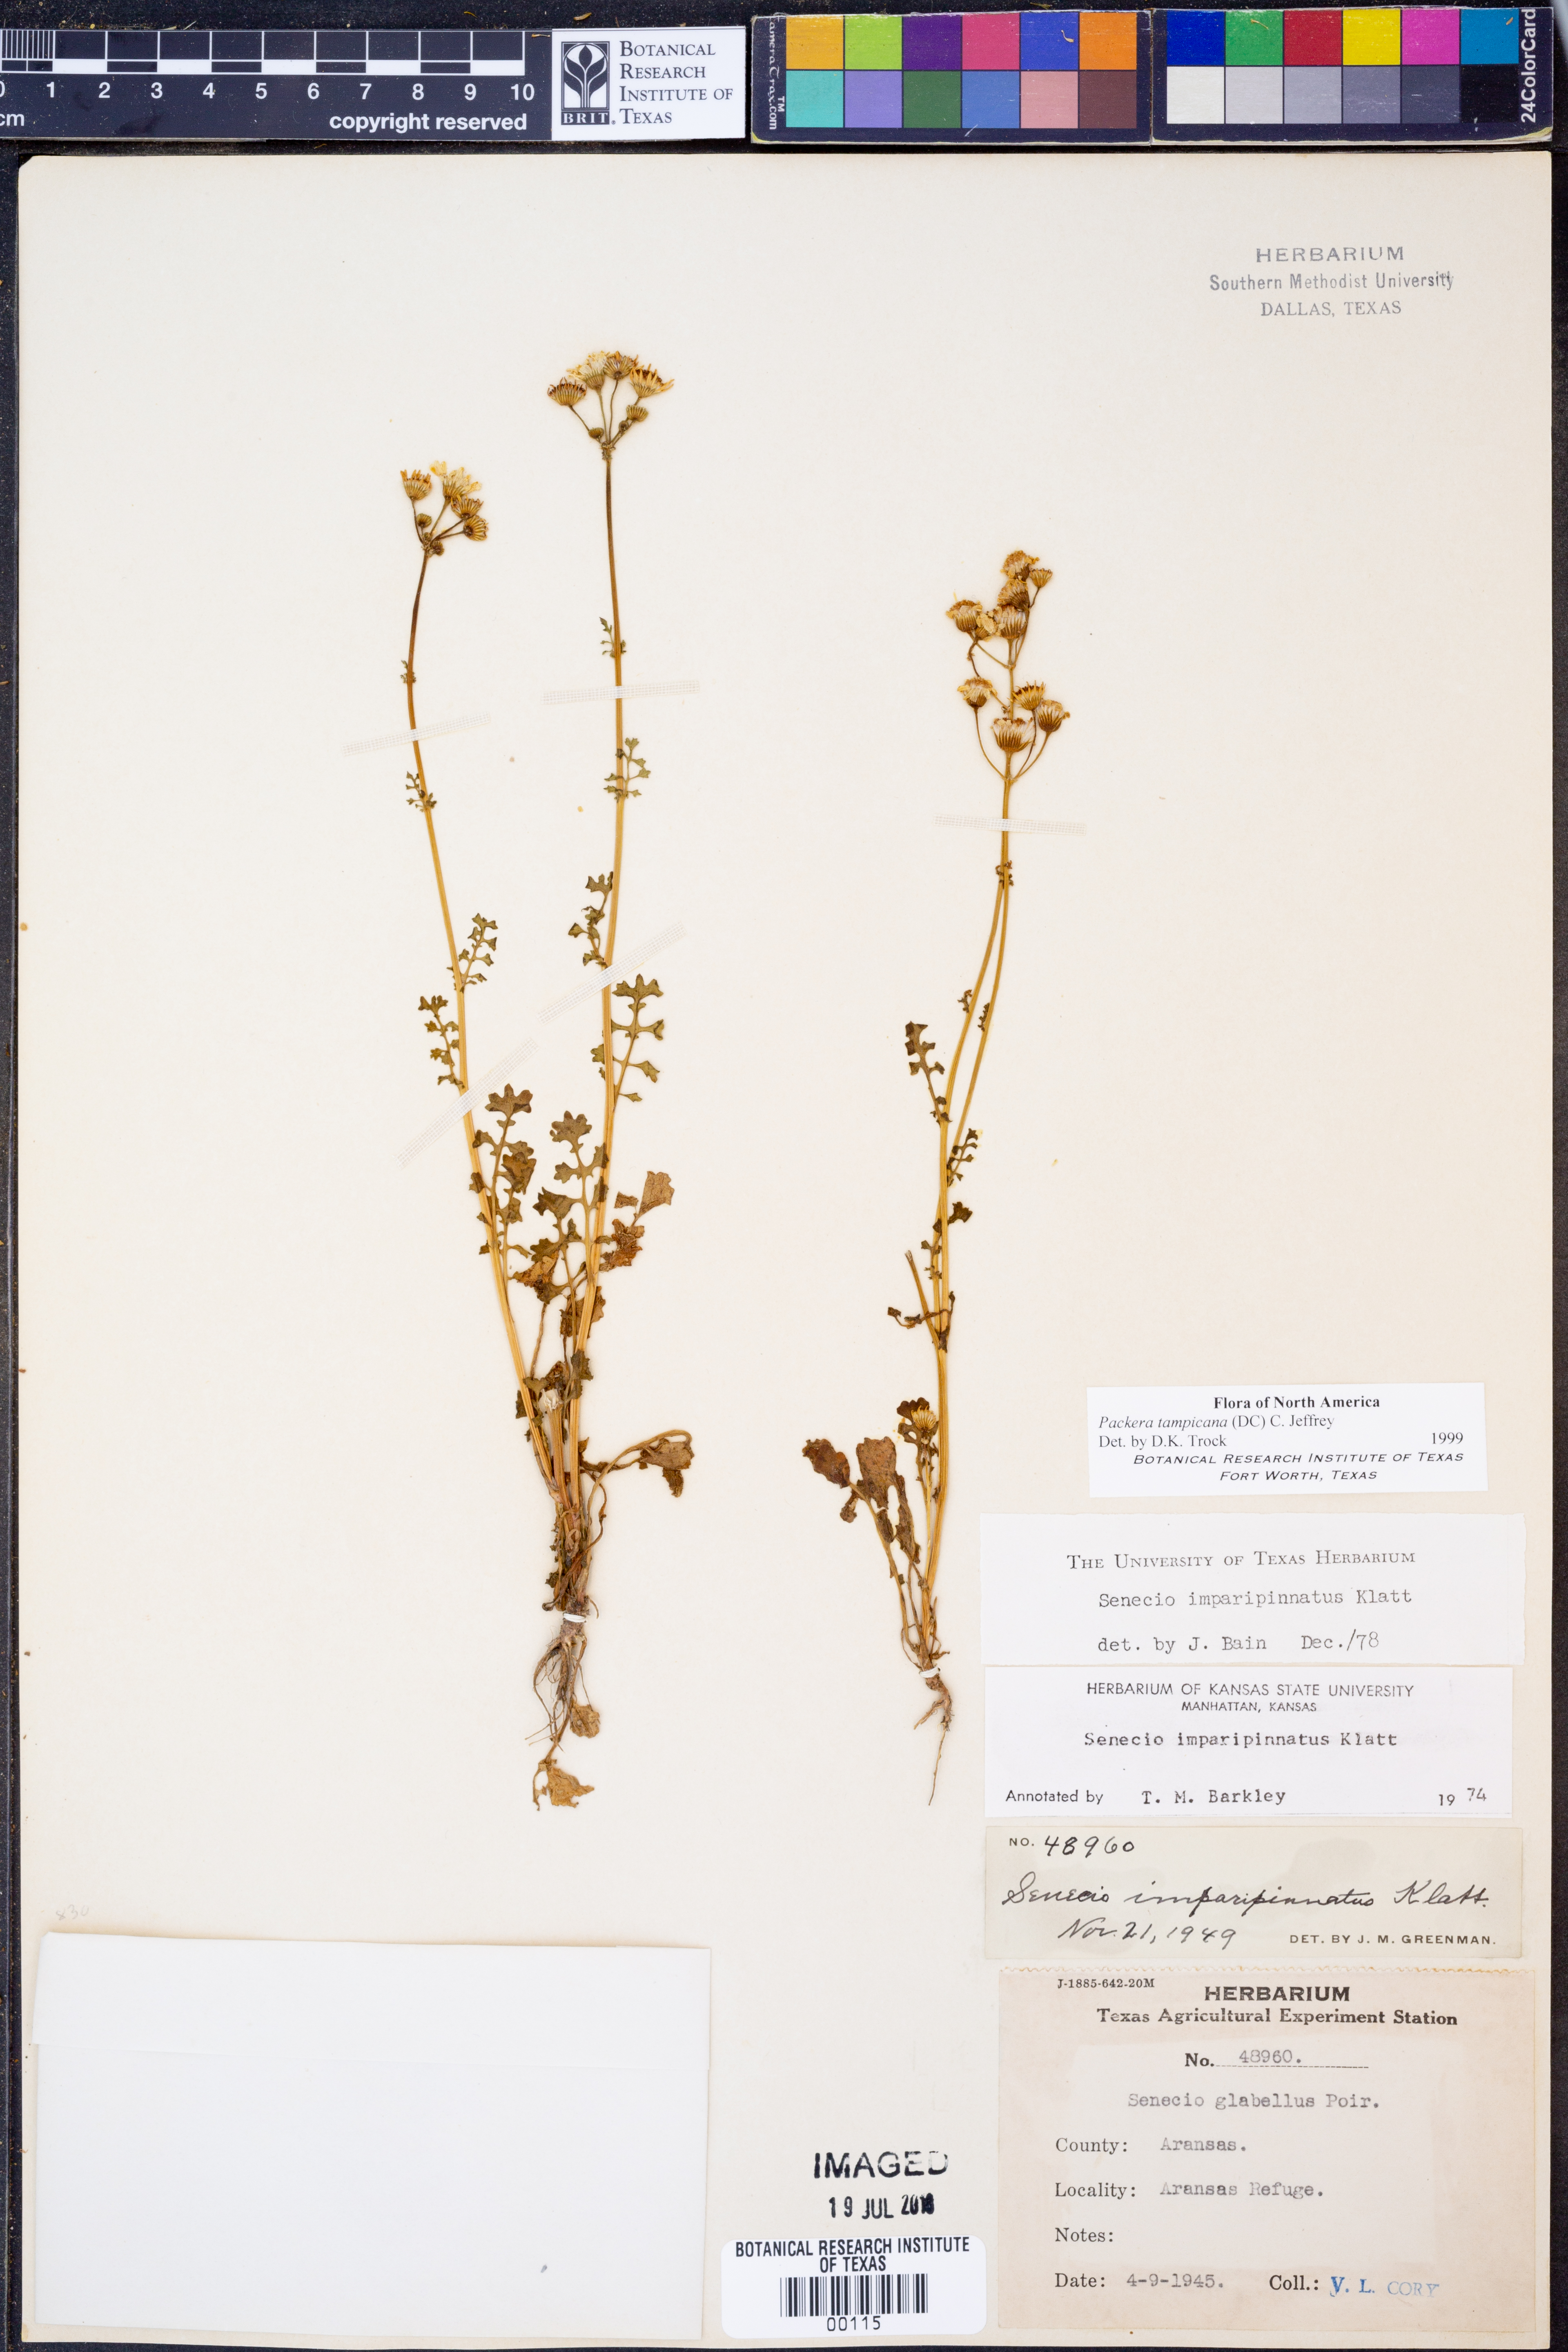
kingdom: Plantae
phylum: Tracheophyta
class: Magnoliopsida
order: Asterales
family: Asteraceae
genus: Packera
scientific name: Packera tampicana
